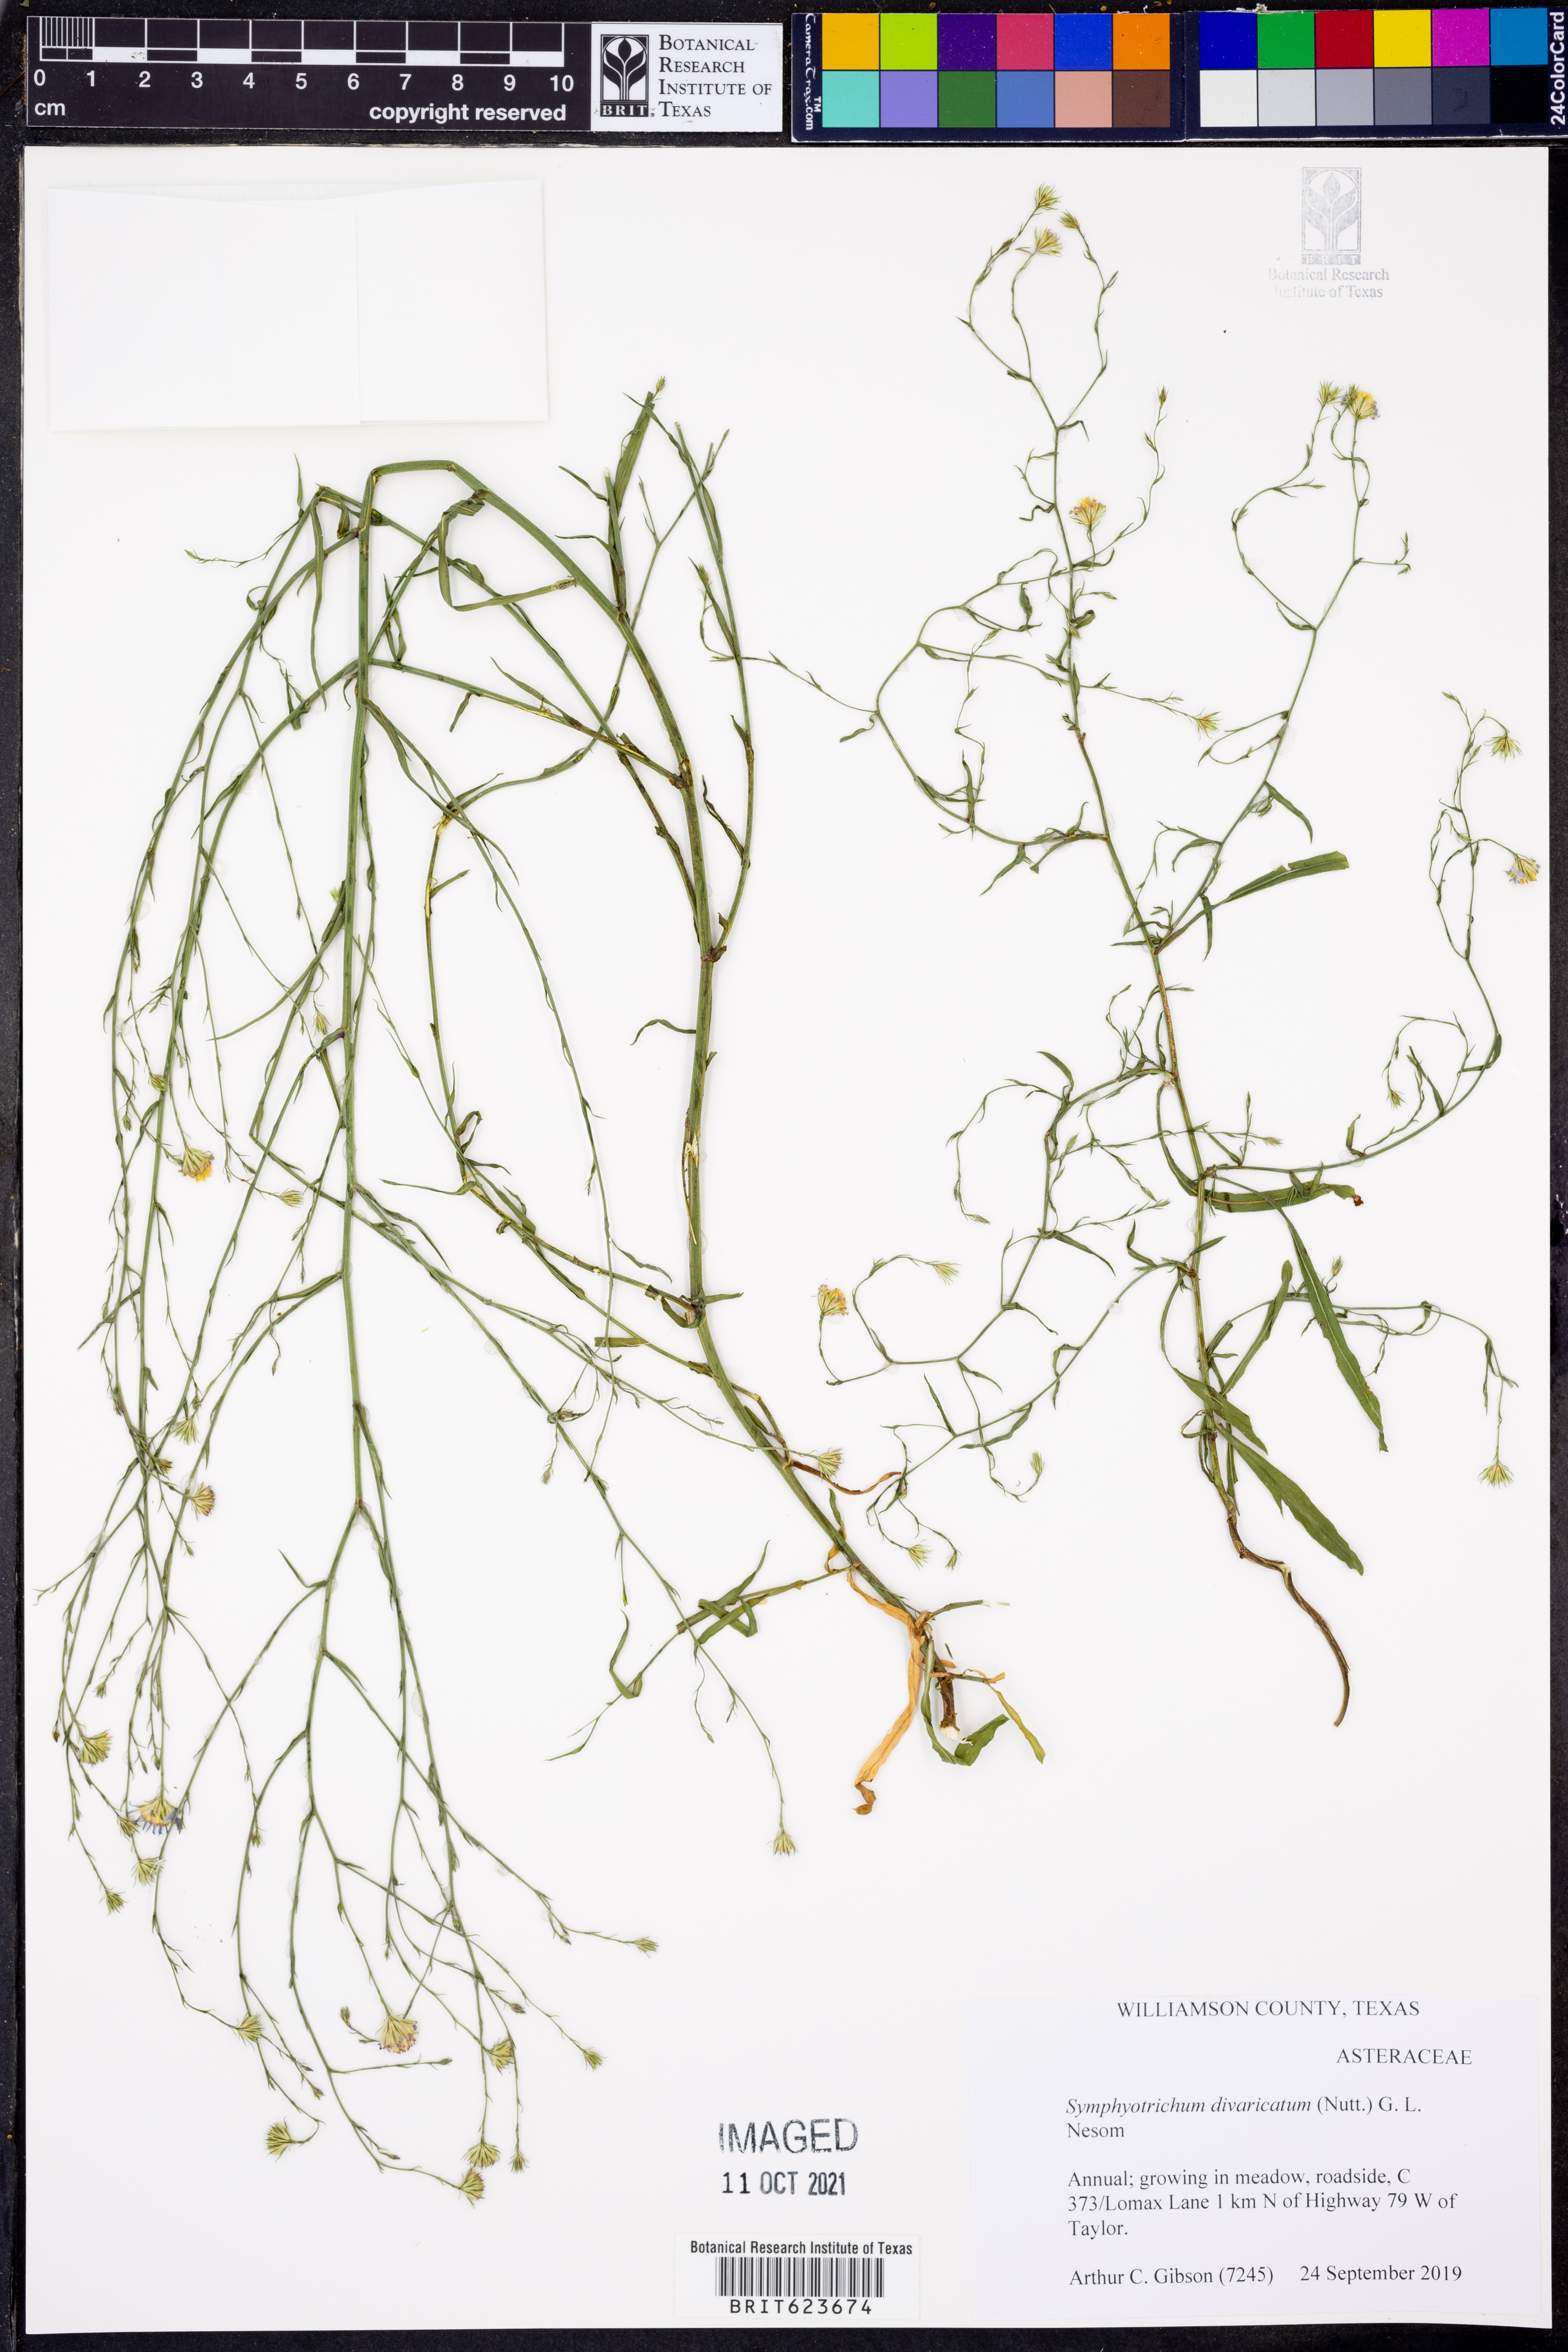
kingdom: Plantae
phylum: Tracheophyta
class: Magnoliopsida
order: Asterales
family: Asteraceae
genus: Symphyotrichum
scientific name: Symphyotrichum divaricatum
